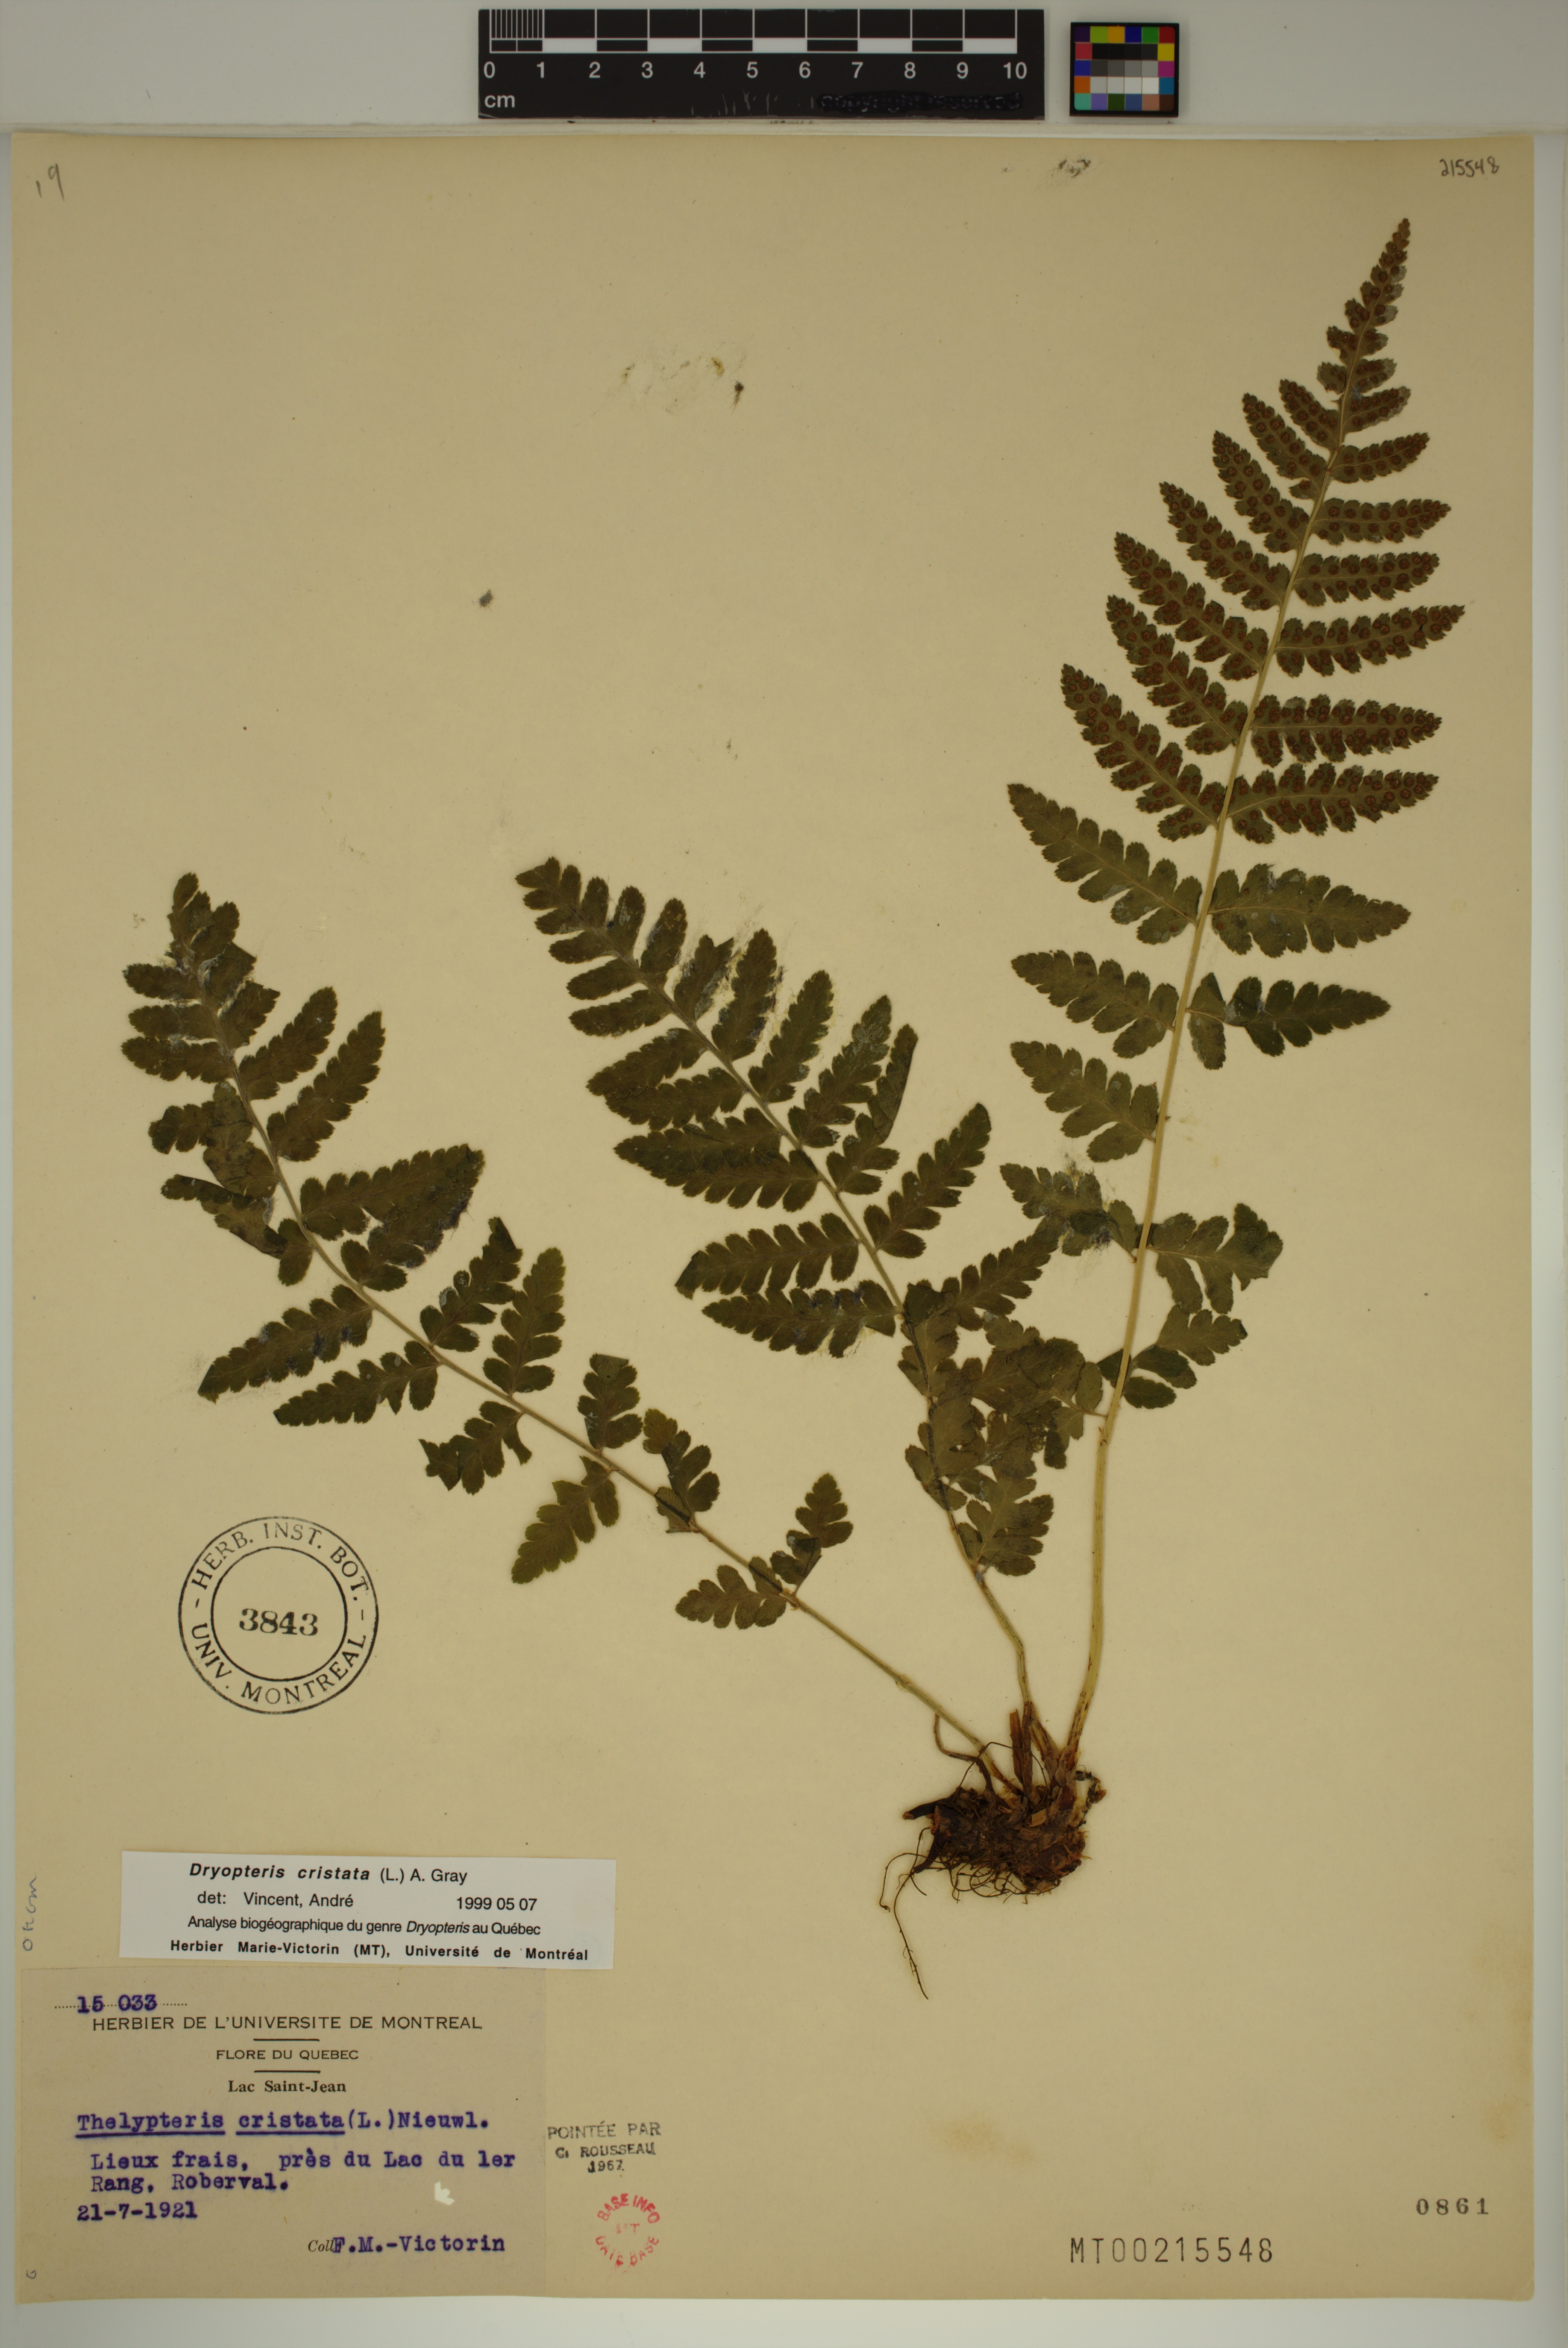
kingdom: Plantae
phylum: Tracheophyta
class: Polypodiopsida
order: Polypodiales
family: Dryopteridaceae
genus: Dryopteris
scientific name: Dryopteris cristata
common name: Crested wood fern
